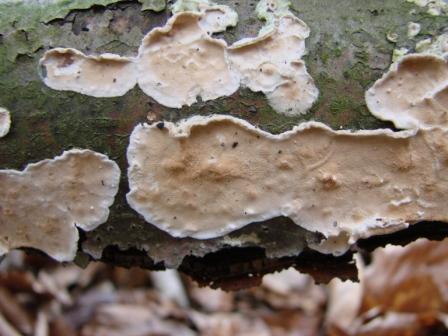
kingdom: Fungi
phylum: Basidiomycota
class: Agaricomycetes
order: Polyporales
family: Irpicaceae
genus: Byssomerulius
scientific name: Byssomerulius corium
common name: læder-åresvamp
